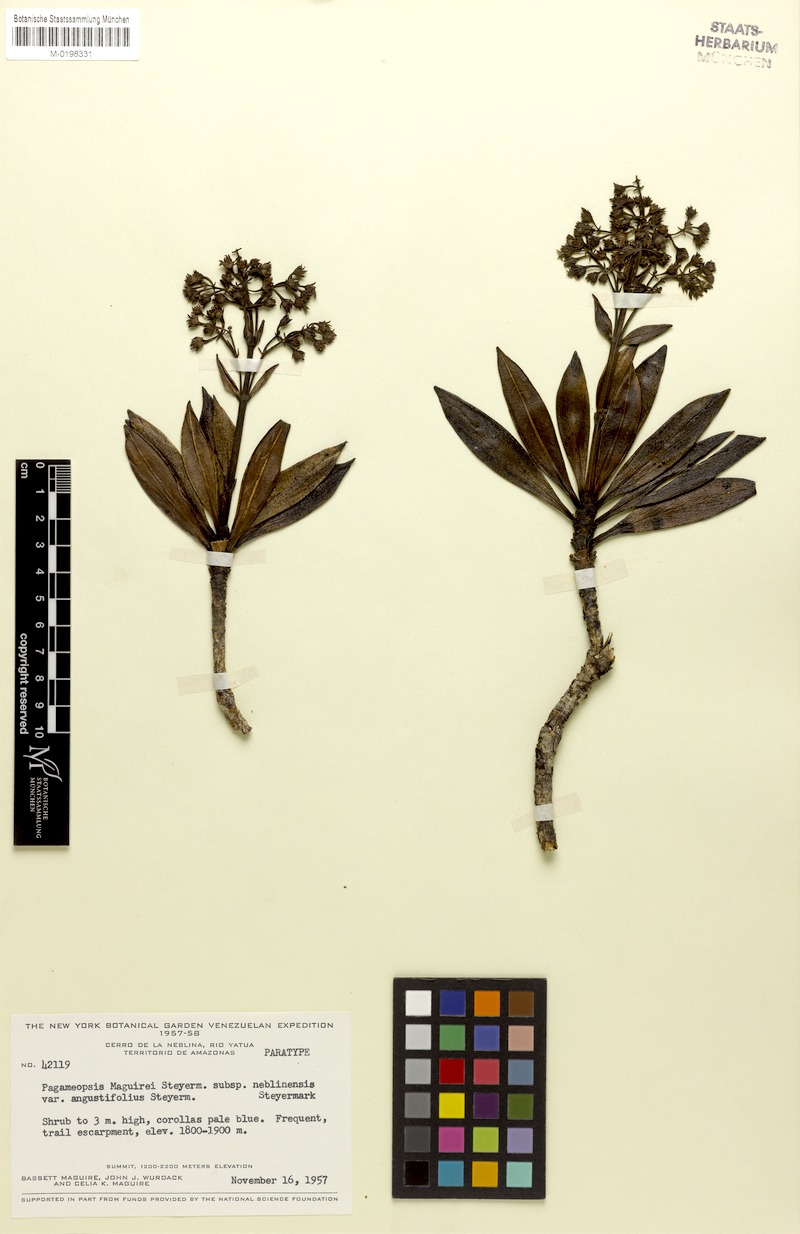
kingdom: Plantae
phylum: Tracheophyta
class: Magnoliopsida
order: Gentianales
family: Rubiaceae
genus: Pagameopsis
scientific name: Pagameopsis maguirei
